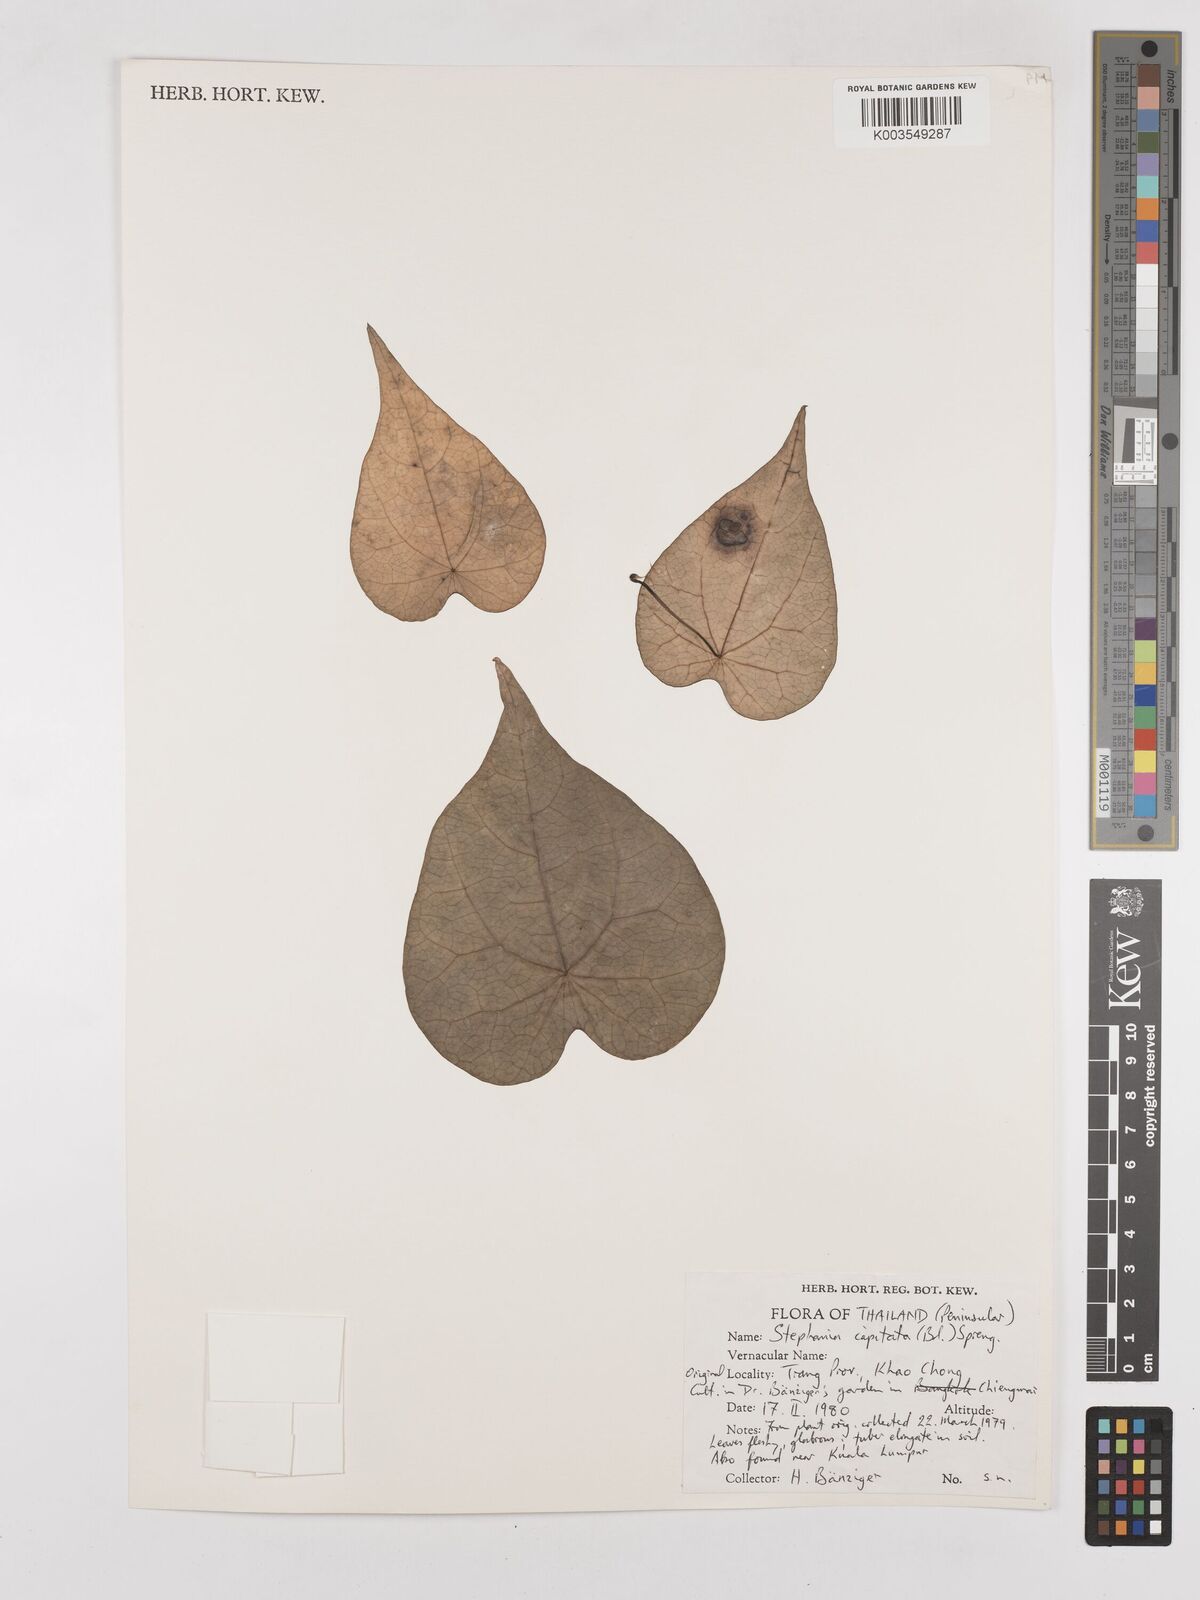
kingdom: Plantae
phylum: Tracheophyta
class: Magnoliopsida
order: Ranunculales
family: Menispermaceae
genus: Stephania
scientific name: Stephania capitata
